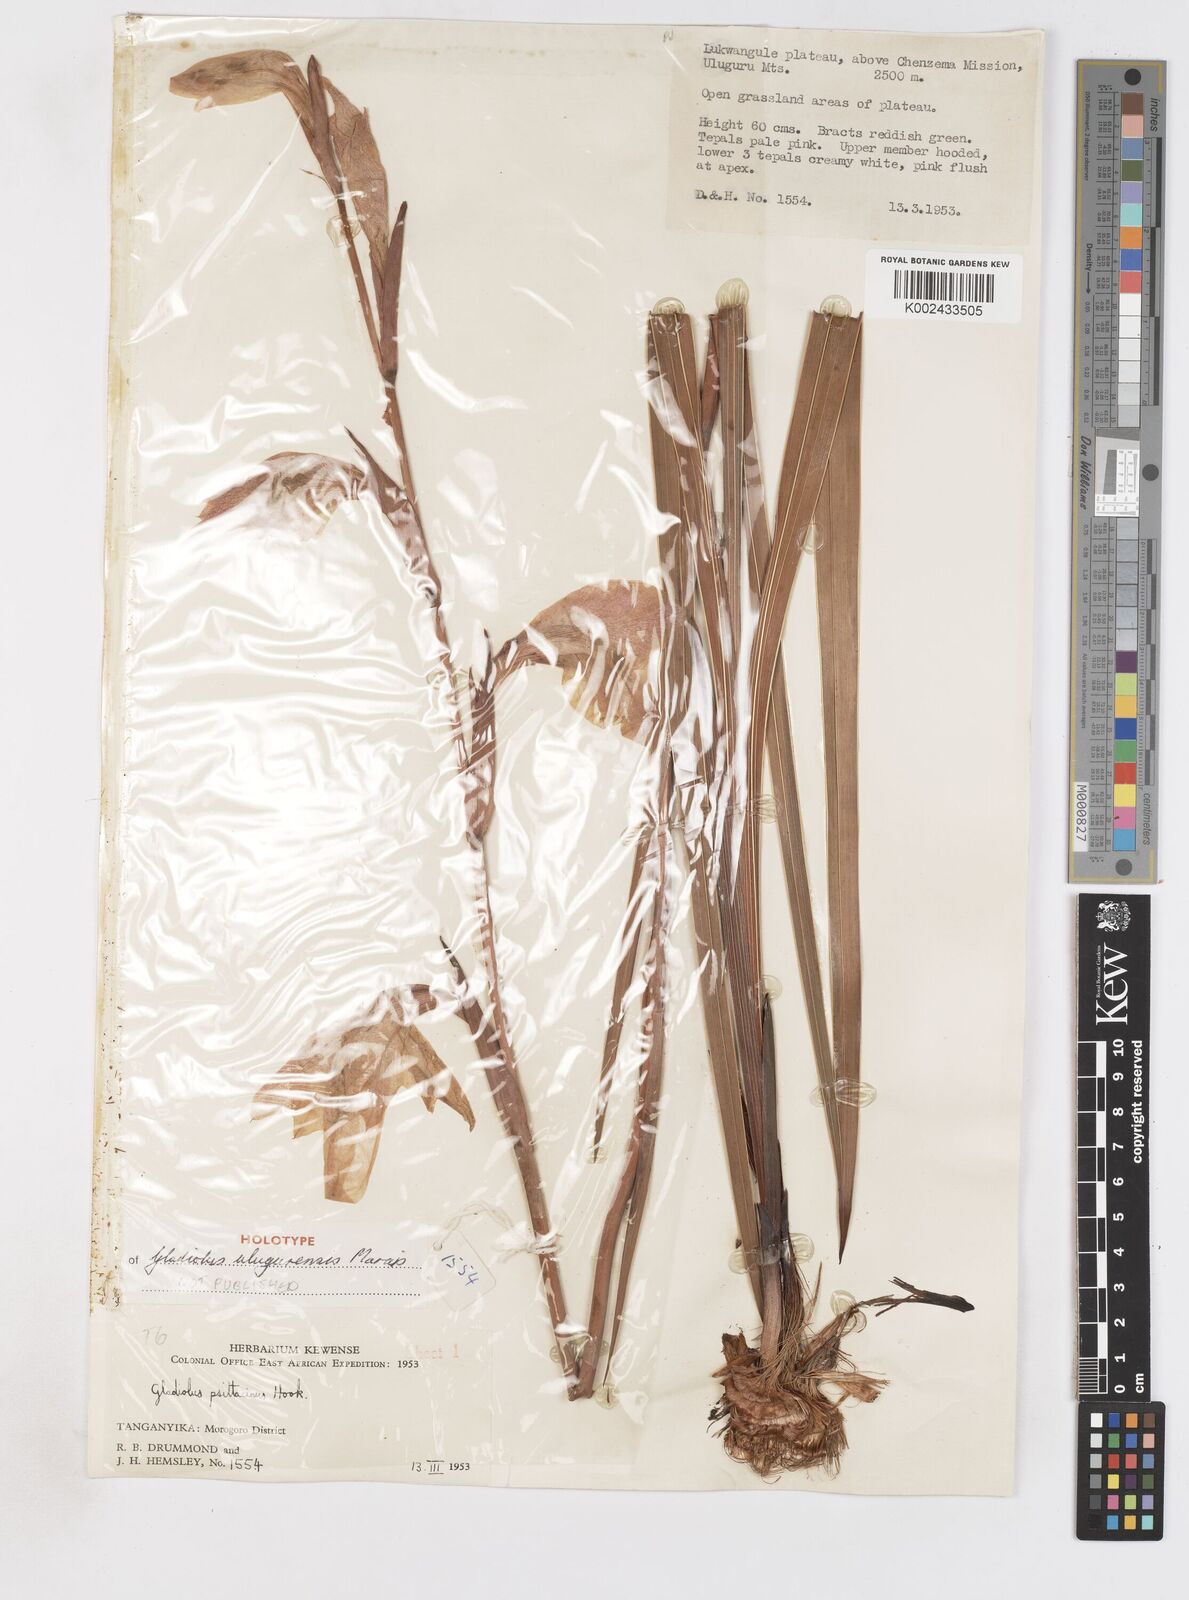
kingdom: Plantae
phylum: Tracheophyta
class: Liliopsida
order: Asparagales
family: Iridaceae
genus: Gladiolus
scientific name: Gladiolus dalenii
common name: Cornflag
